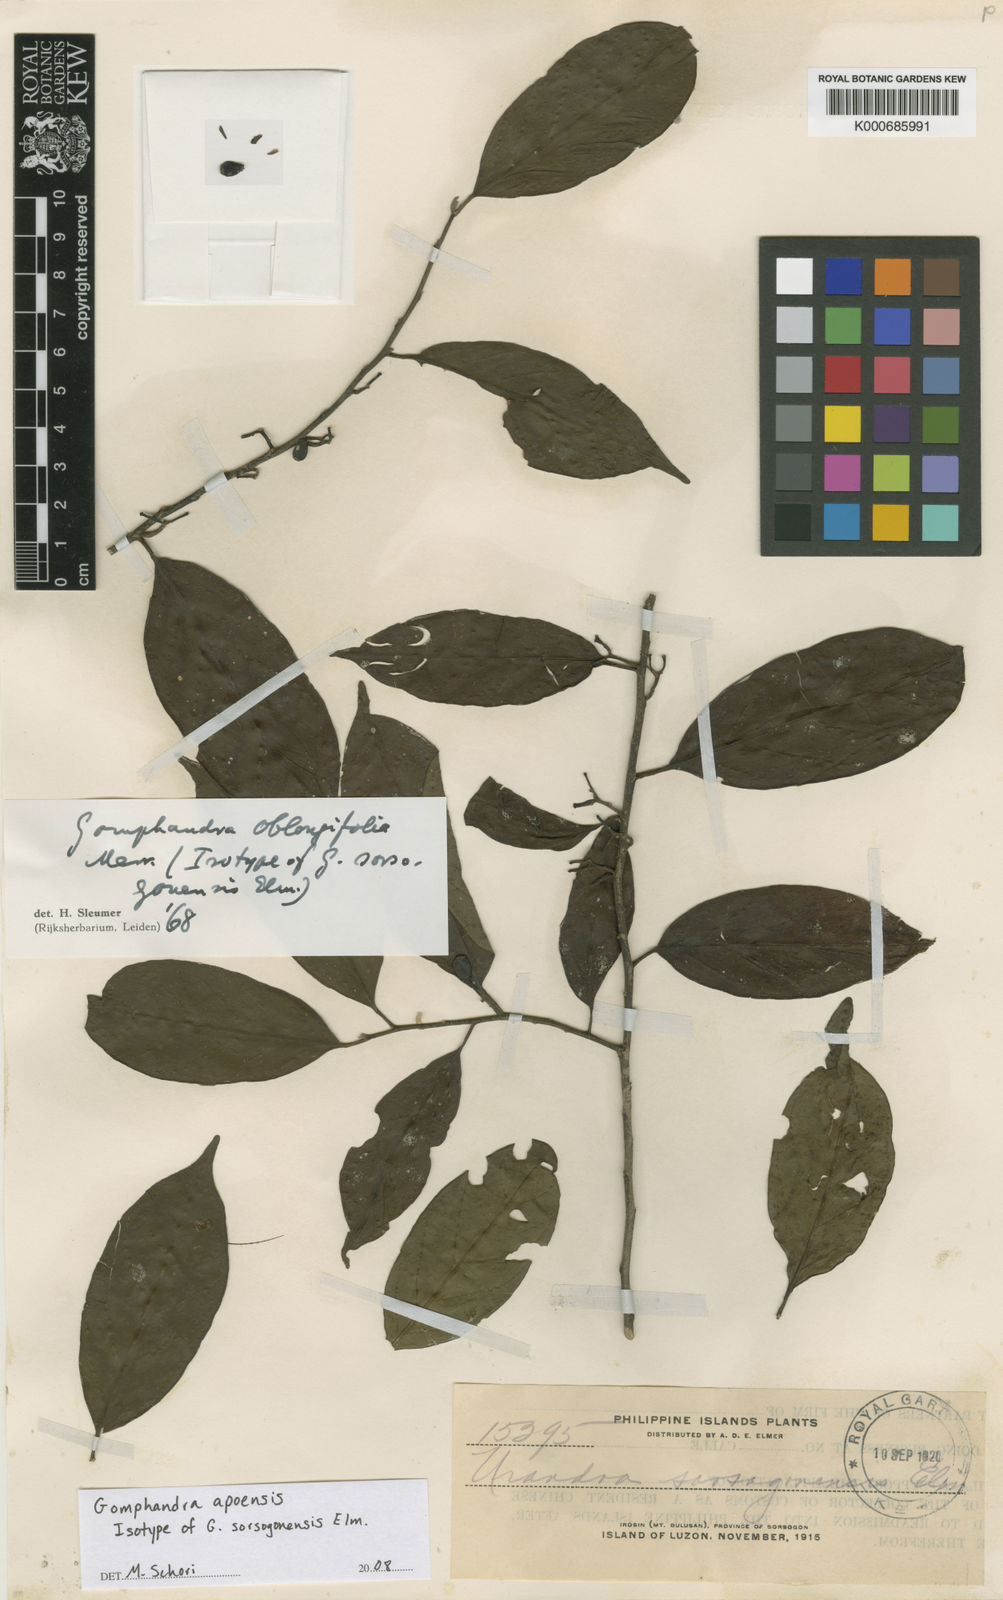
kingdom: Plantae
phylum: Tracheophyta
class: Magnoliopsida
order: Cardiopteridales
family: Stemonuraceae
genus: Gomphandra
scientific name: Gomphandra apoensis
